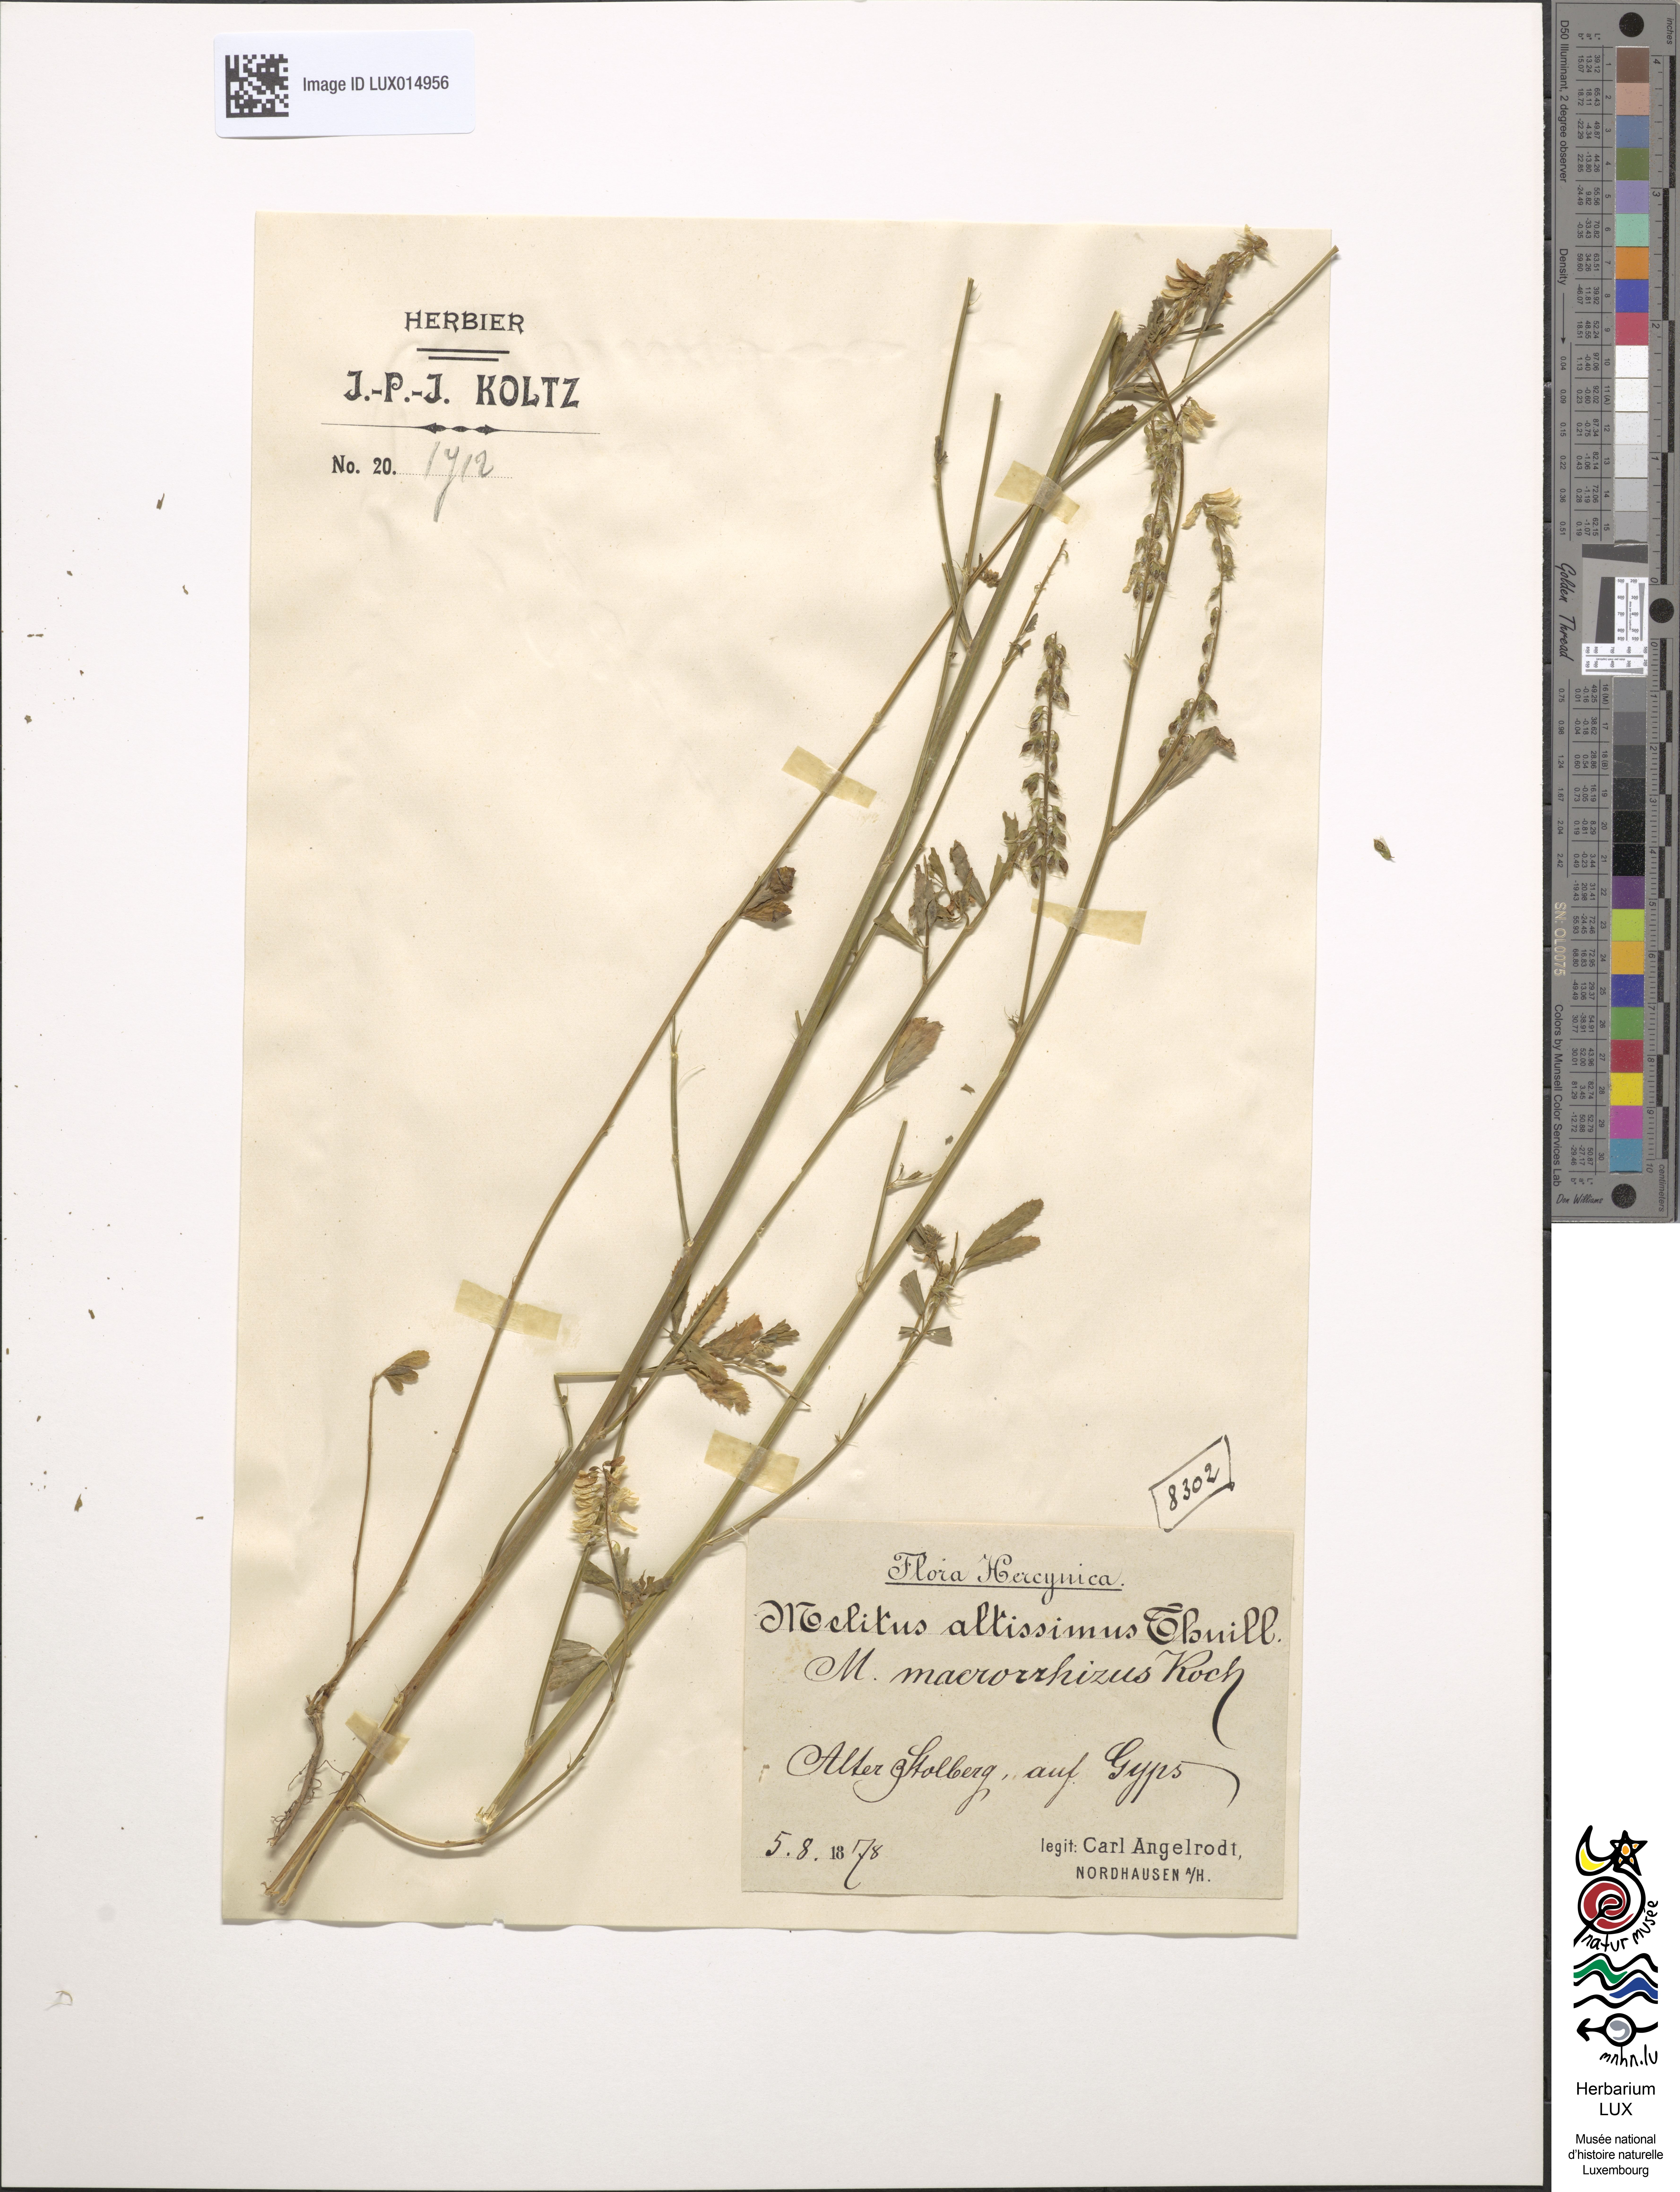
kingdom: Plantae
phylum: Tracheophyta
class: Magnoliopsida
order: Fabales
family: Fabaceae
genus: Melilotus
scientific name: Melilotus altissimus
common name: Tall melilot
